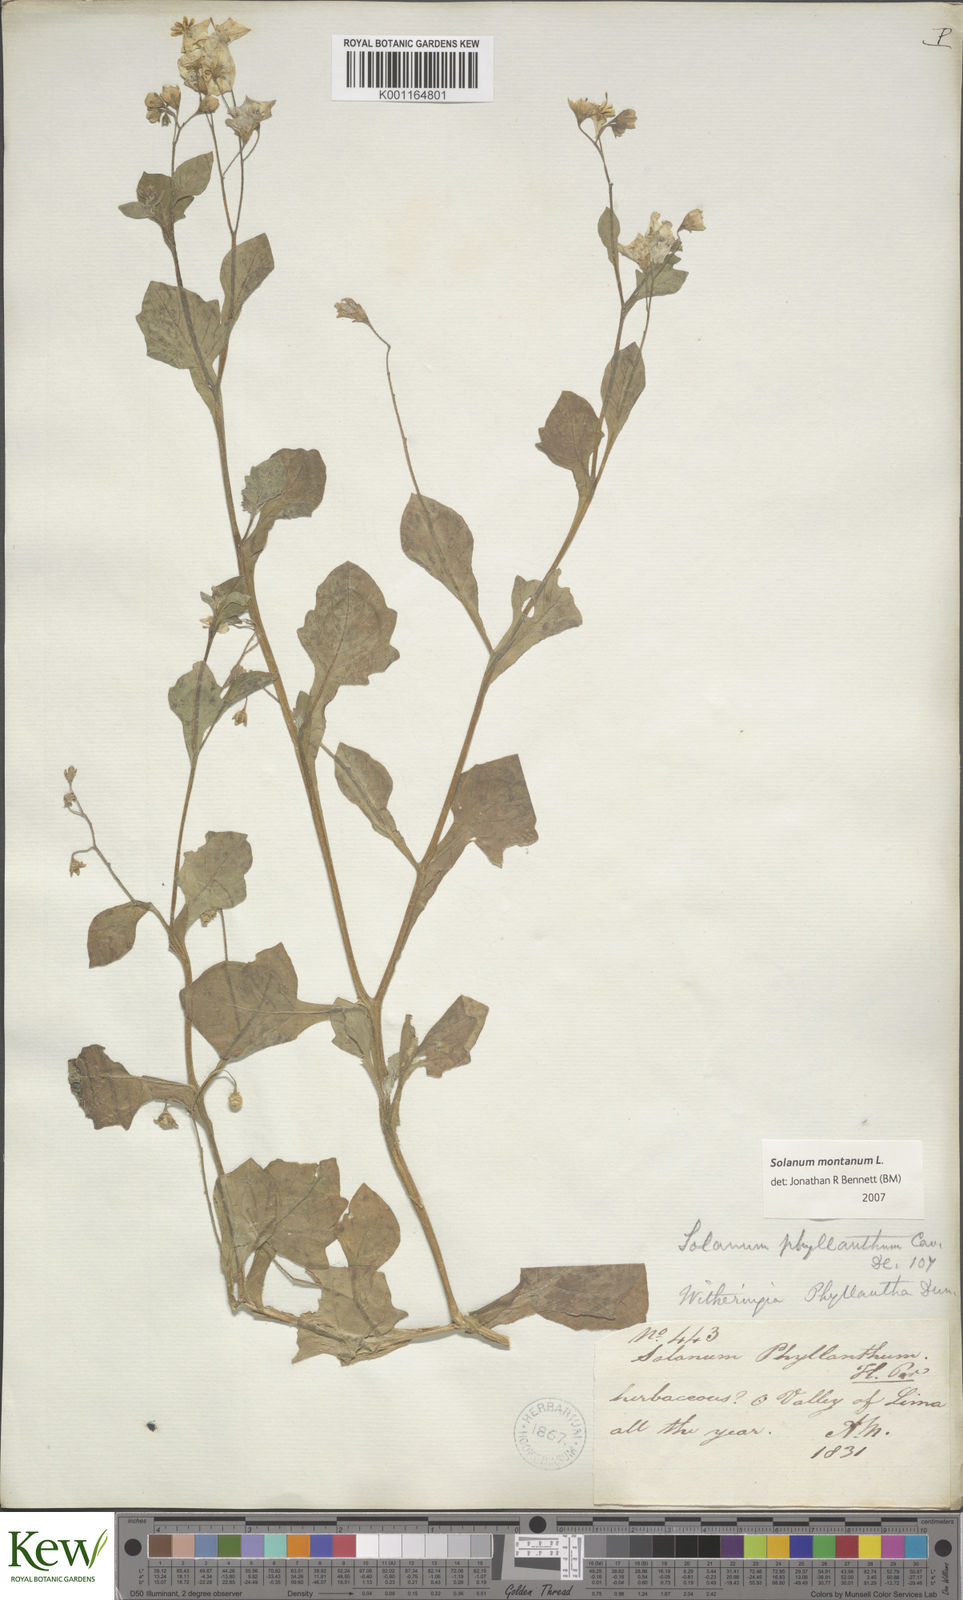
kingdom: Plantae
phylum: Tracheophyta
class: Magnoliopsida
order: Solanales
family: Solanaceae
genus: Solanum
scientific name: Solanum montanum
